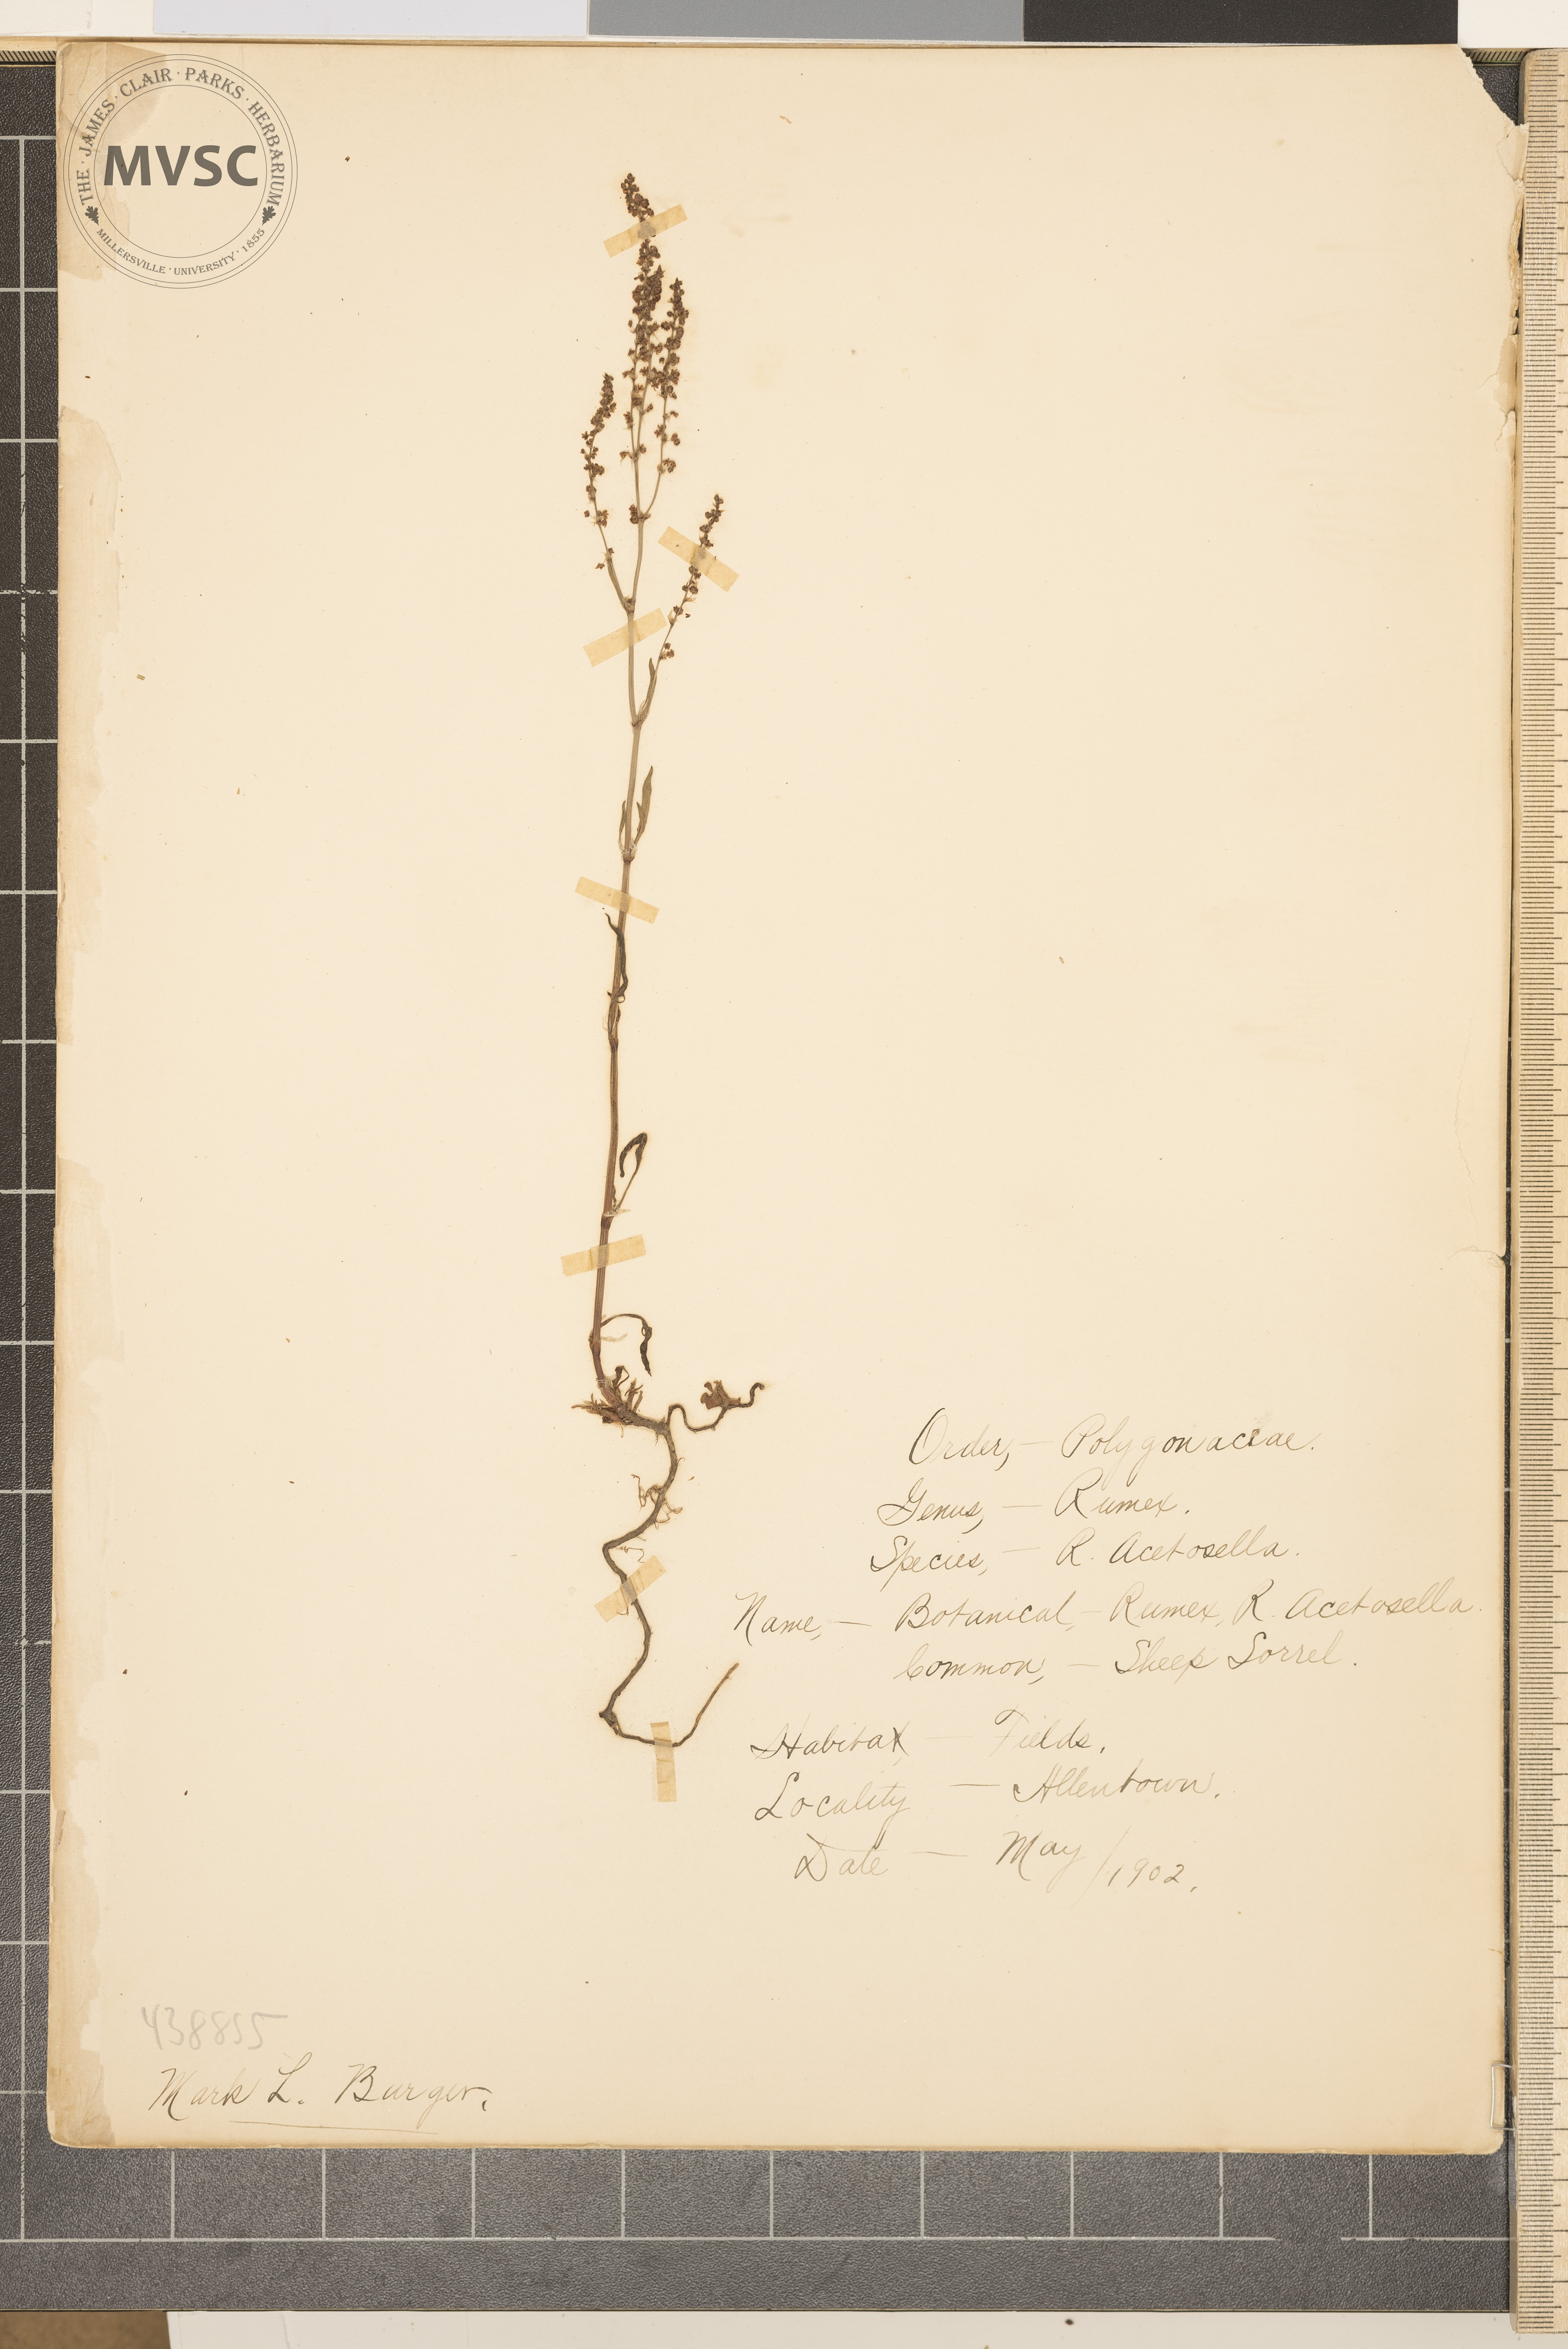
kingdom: Plantae
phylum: Tracheophyta
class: Magnoliopsida
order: Caryophyllales
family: Polygonaceae
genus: Rumex
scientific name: Rumex acetosella
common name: Common sheep sorrel
